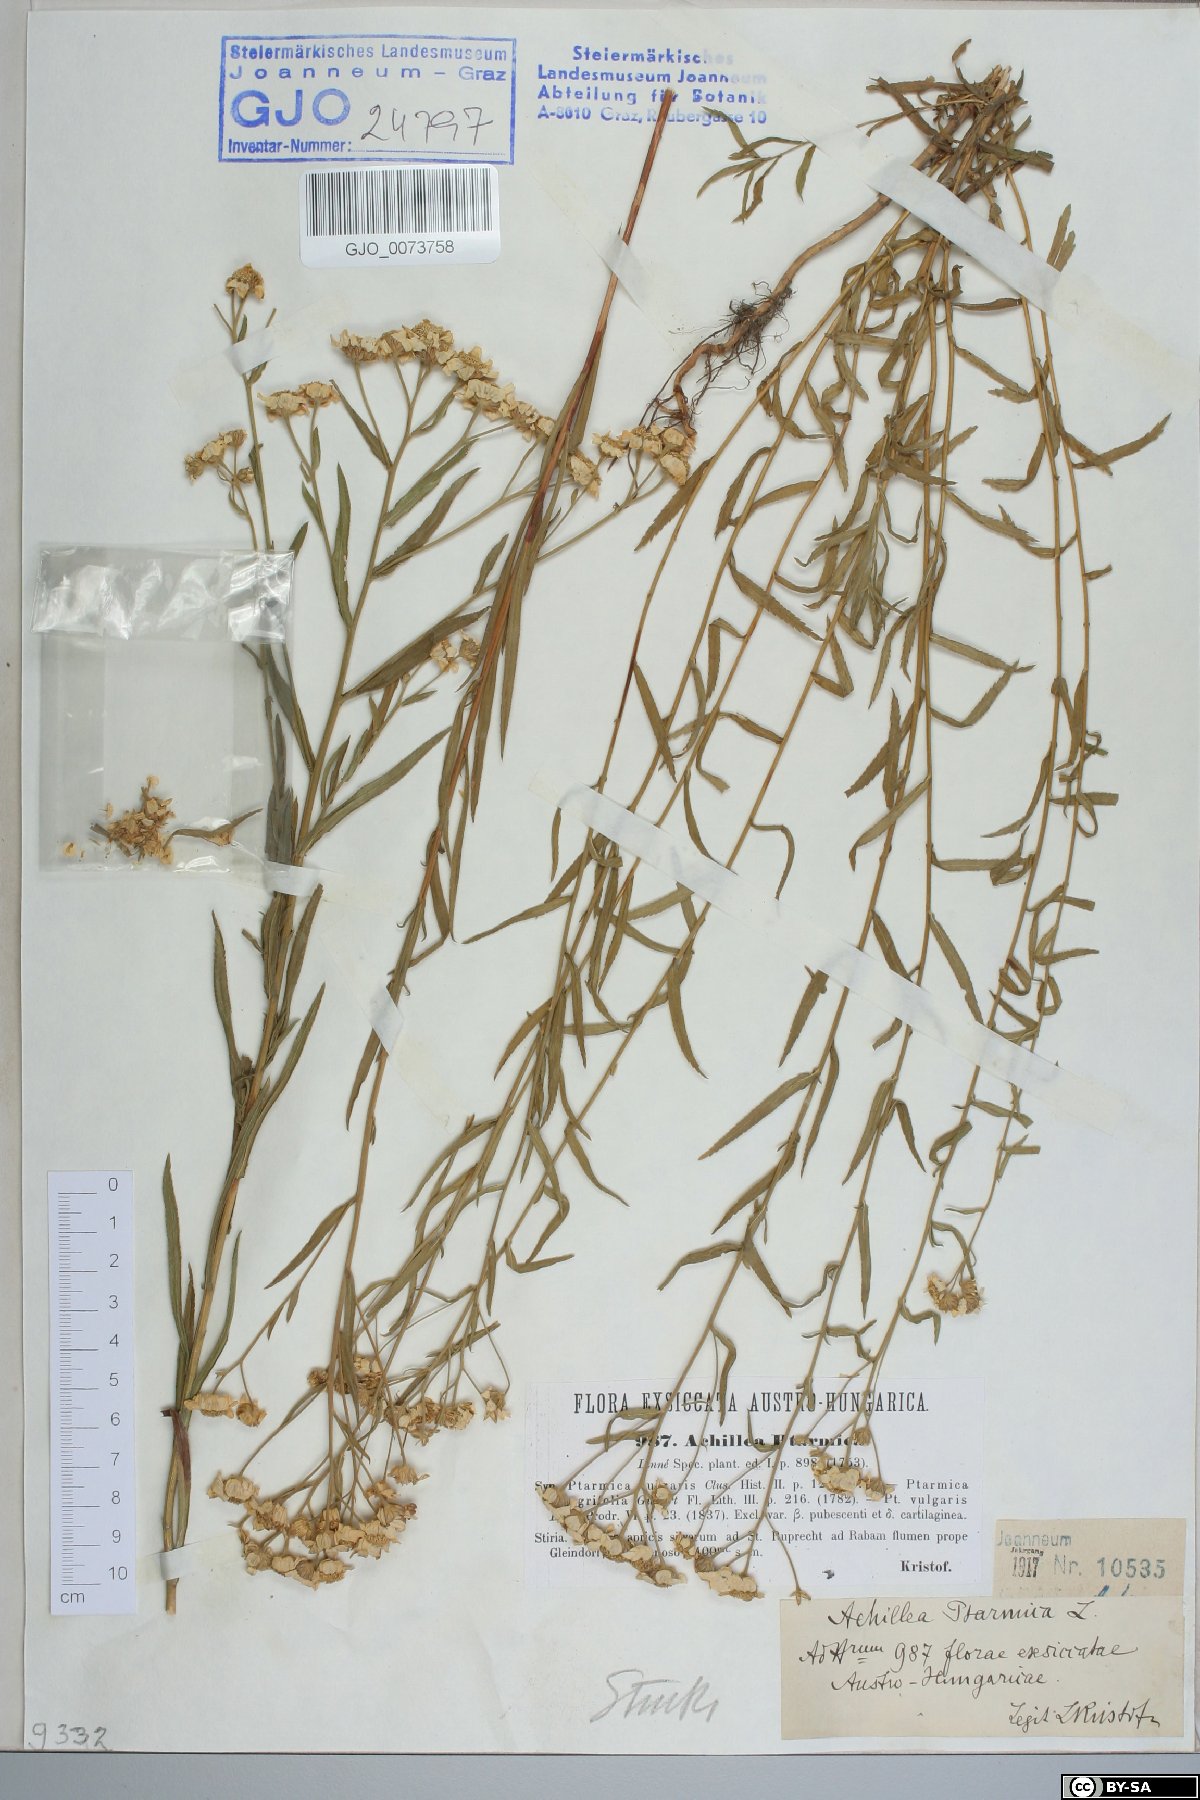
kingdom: Plantae
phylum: Tracheophyta
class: Magnoliopsida
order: Asterales
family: Asteraceae
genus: Achillea
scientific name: Achillea ptarmica
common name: Sneezeweed
